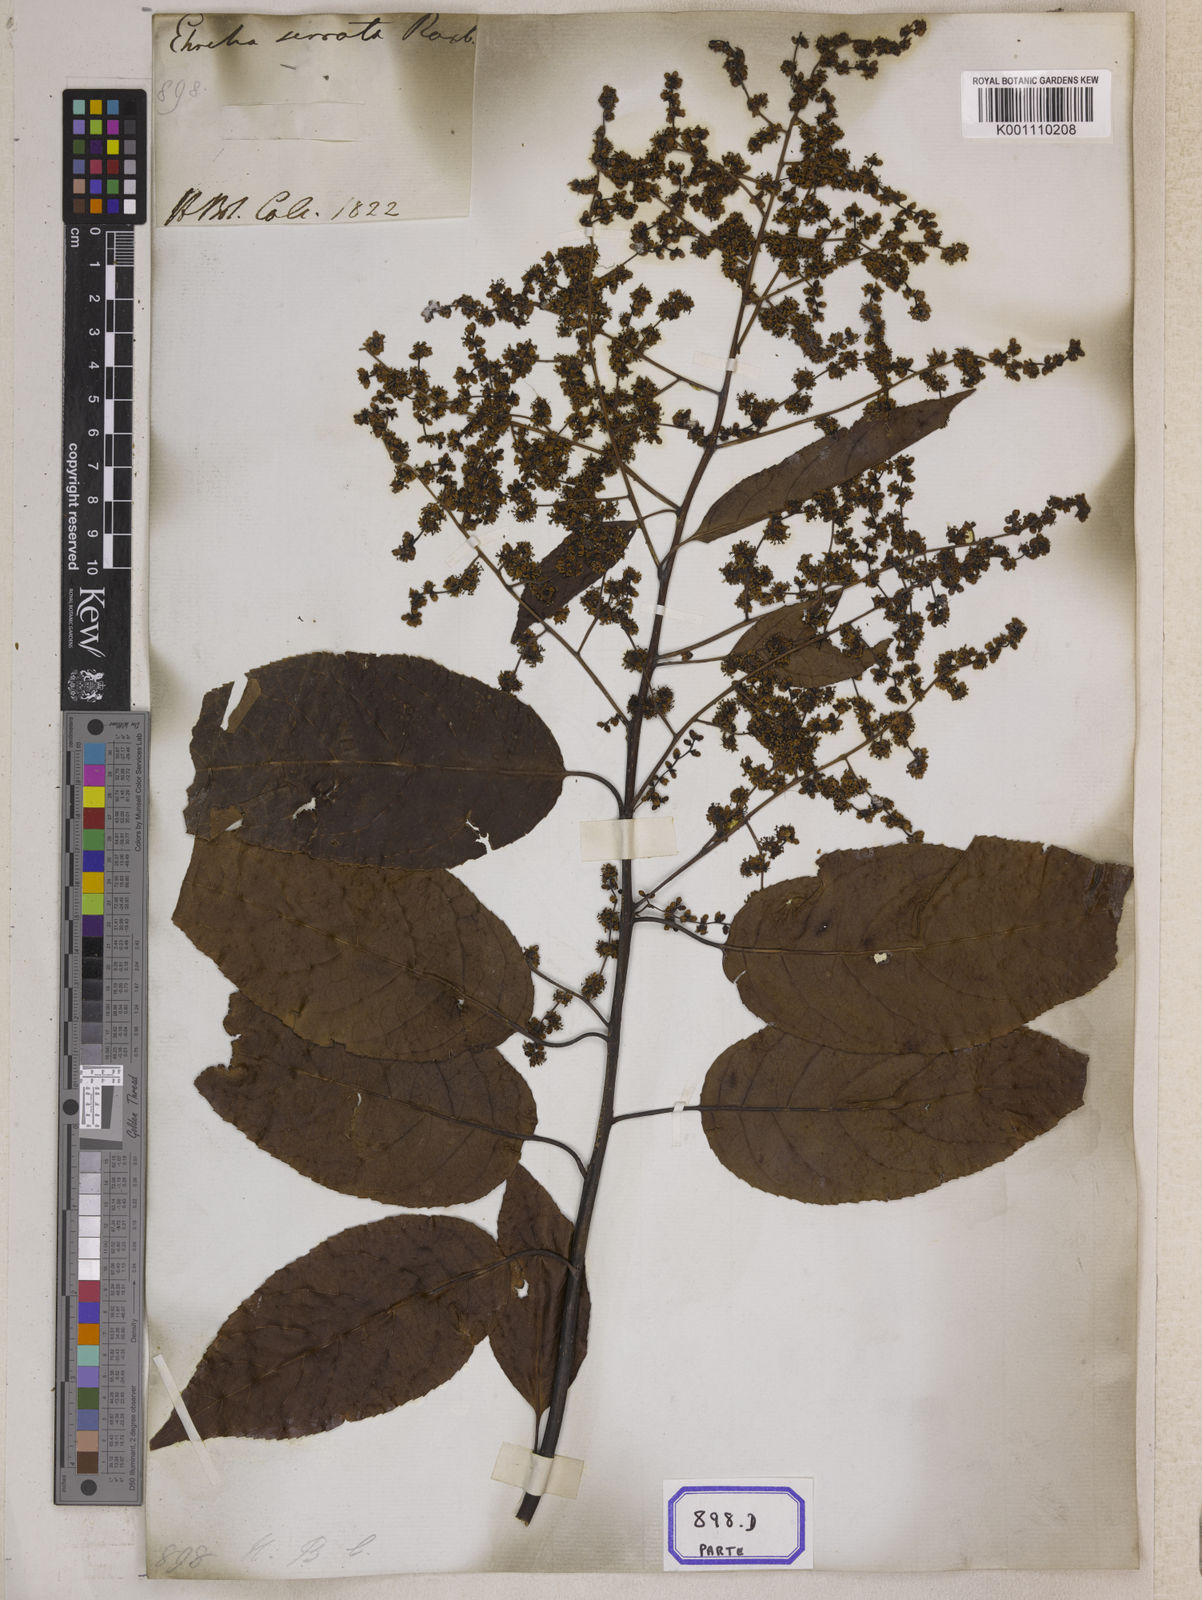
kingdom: Plantae
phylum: Tracheophyta
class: Magnoliopsida
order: Boraginales
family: Ehretiaceae
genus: Ehretia
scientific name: Ehretia acuminata
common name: Kodo wood
